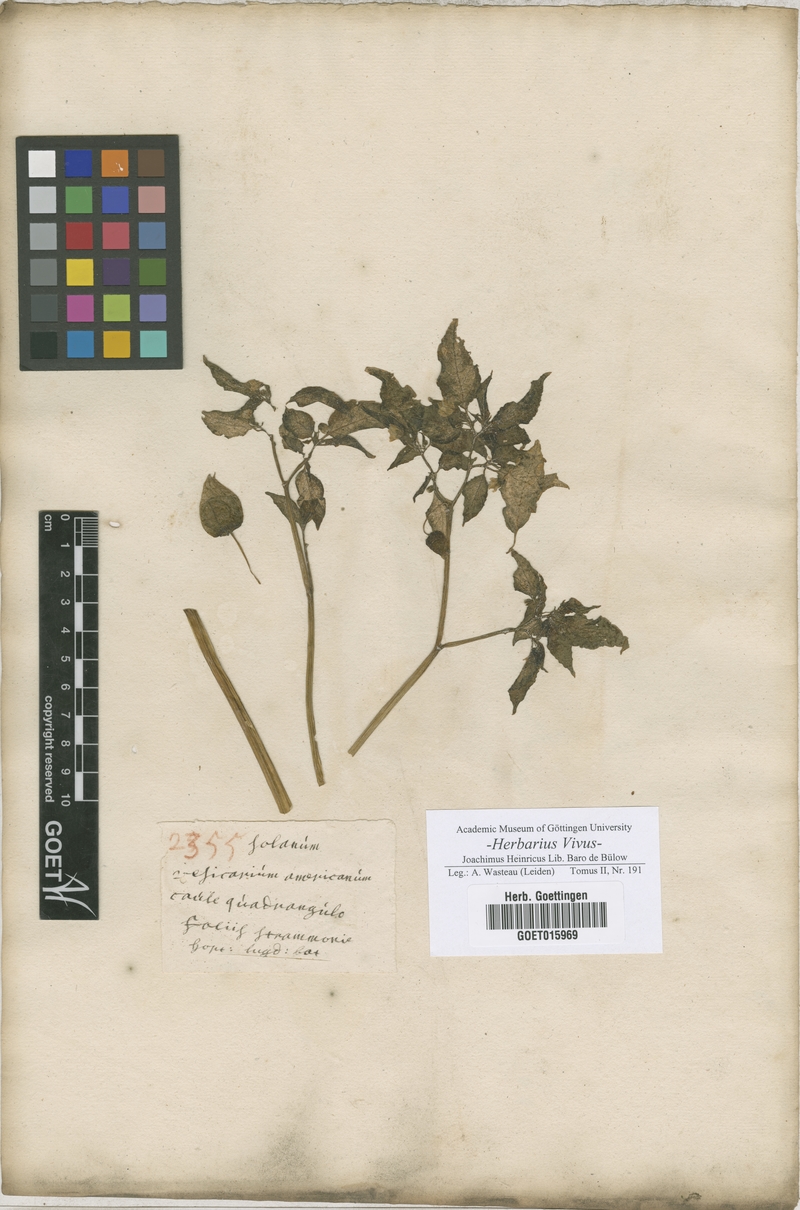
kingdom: Plantae
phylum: Tracheophyta
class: Magnoliopsida
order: Solanales
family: Solanaceae
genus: Solanum
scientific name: Solanum
